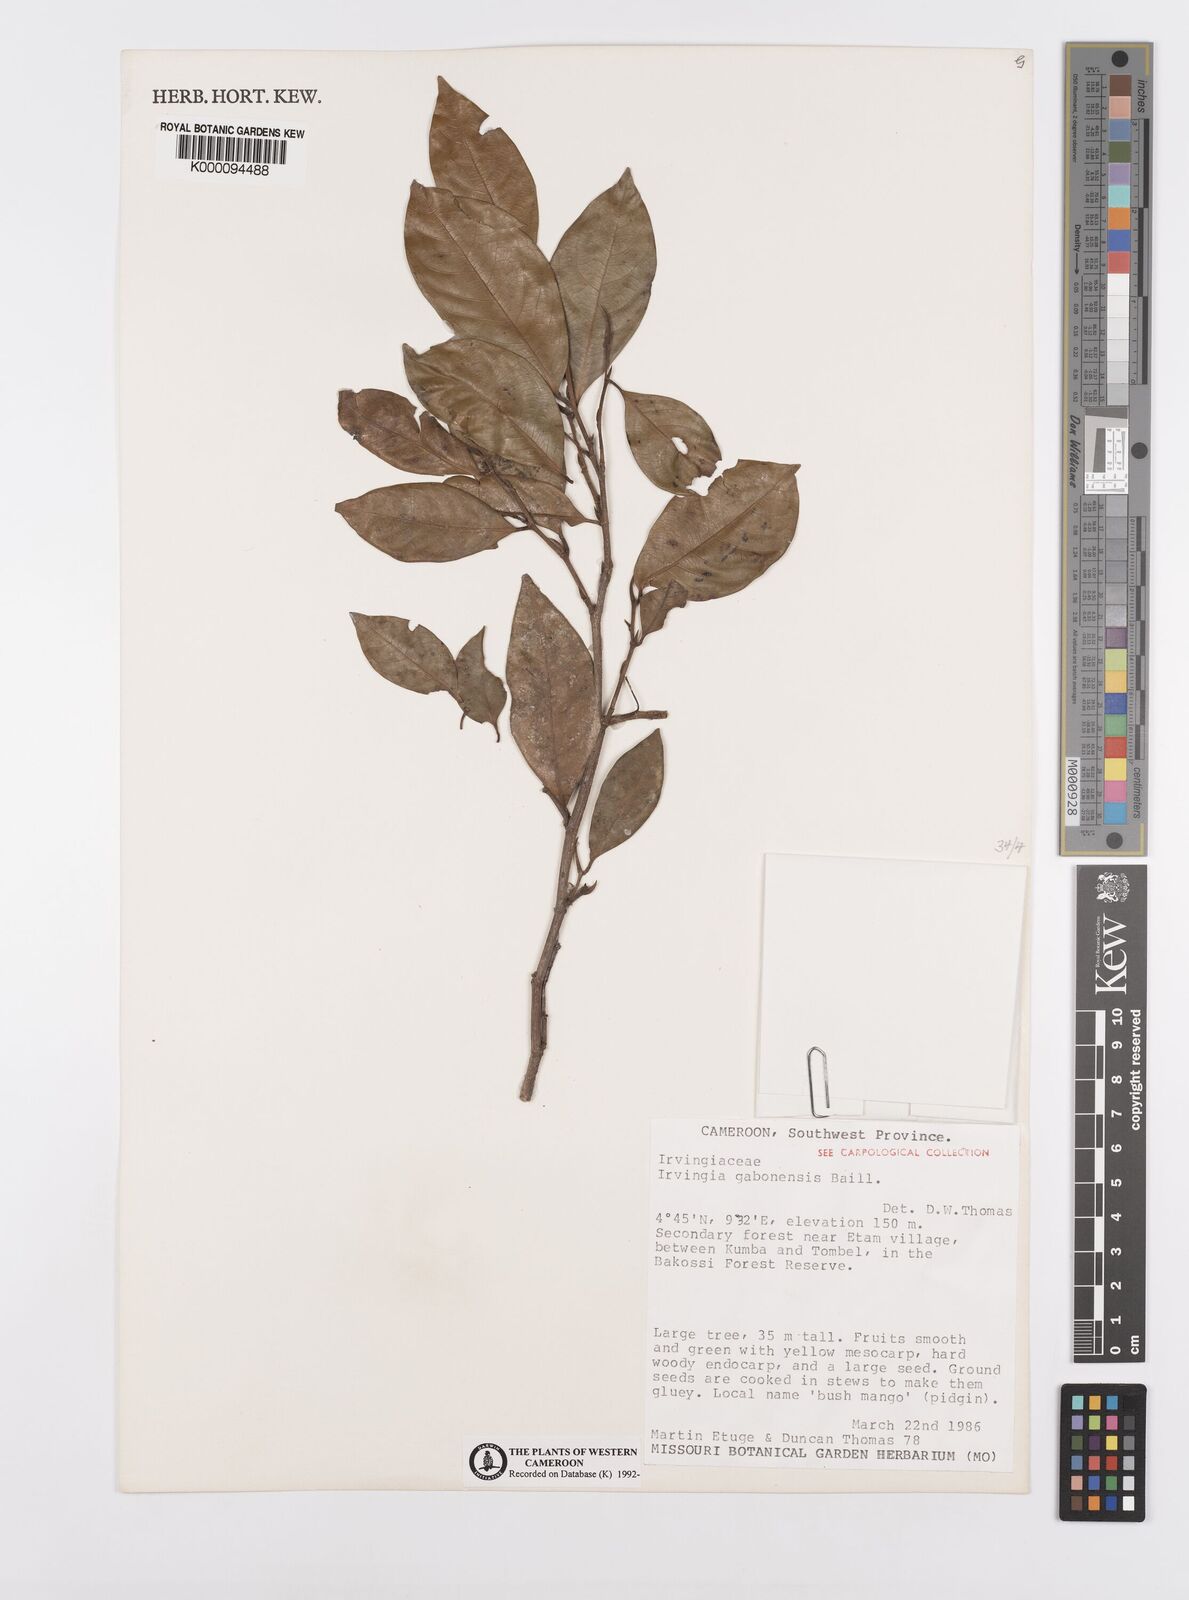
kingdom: Plantae
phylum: Tracheophyta
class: Magnoliopsida
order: Malpighiales
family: Irvingiaceae
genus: Irvingia
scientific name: Irvingia gabonensis
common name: Rainy season bush-mango
